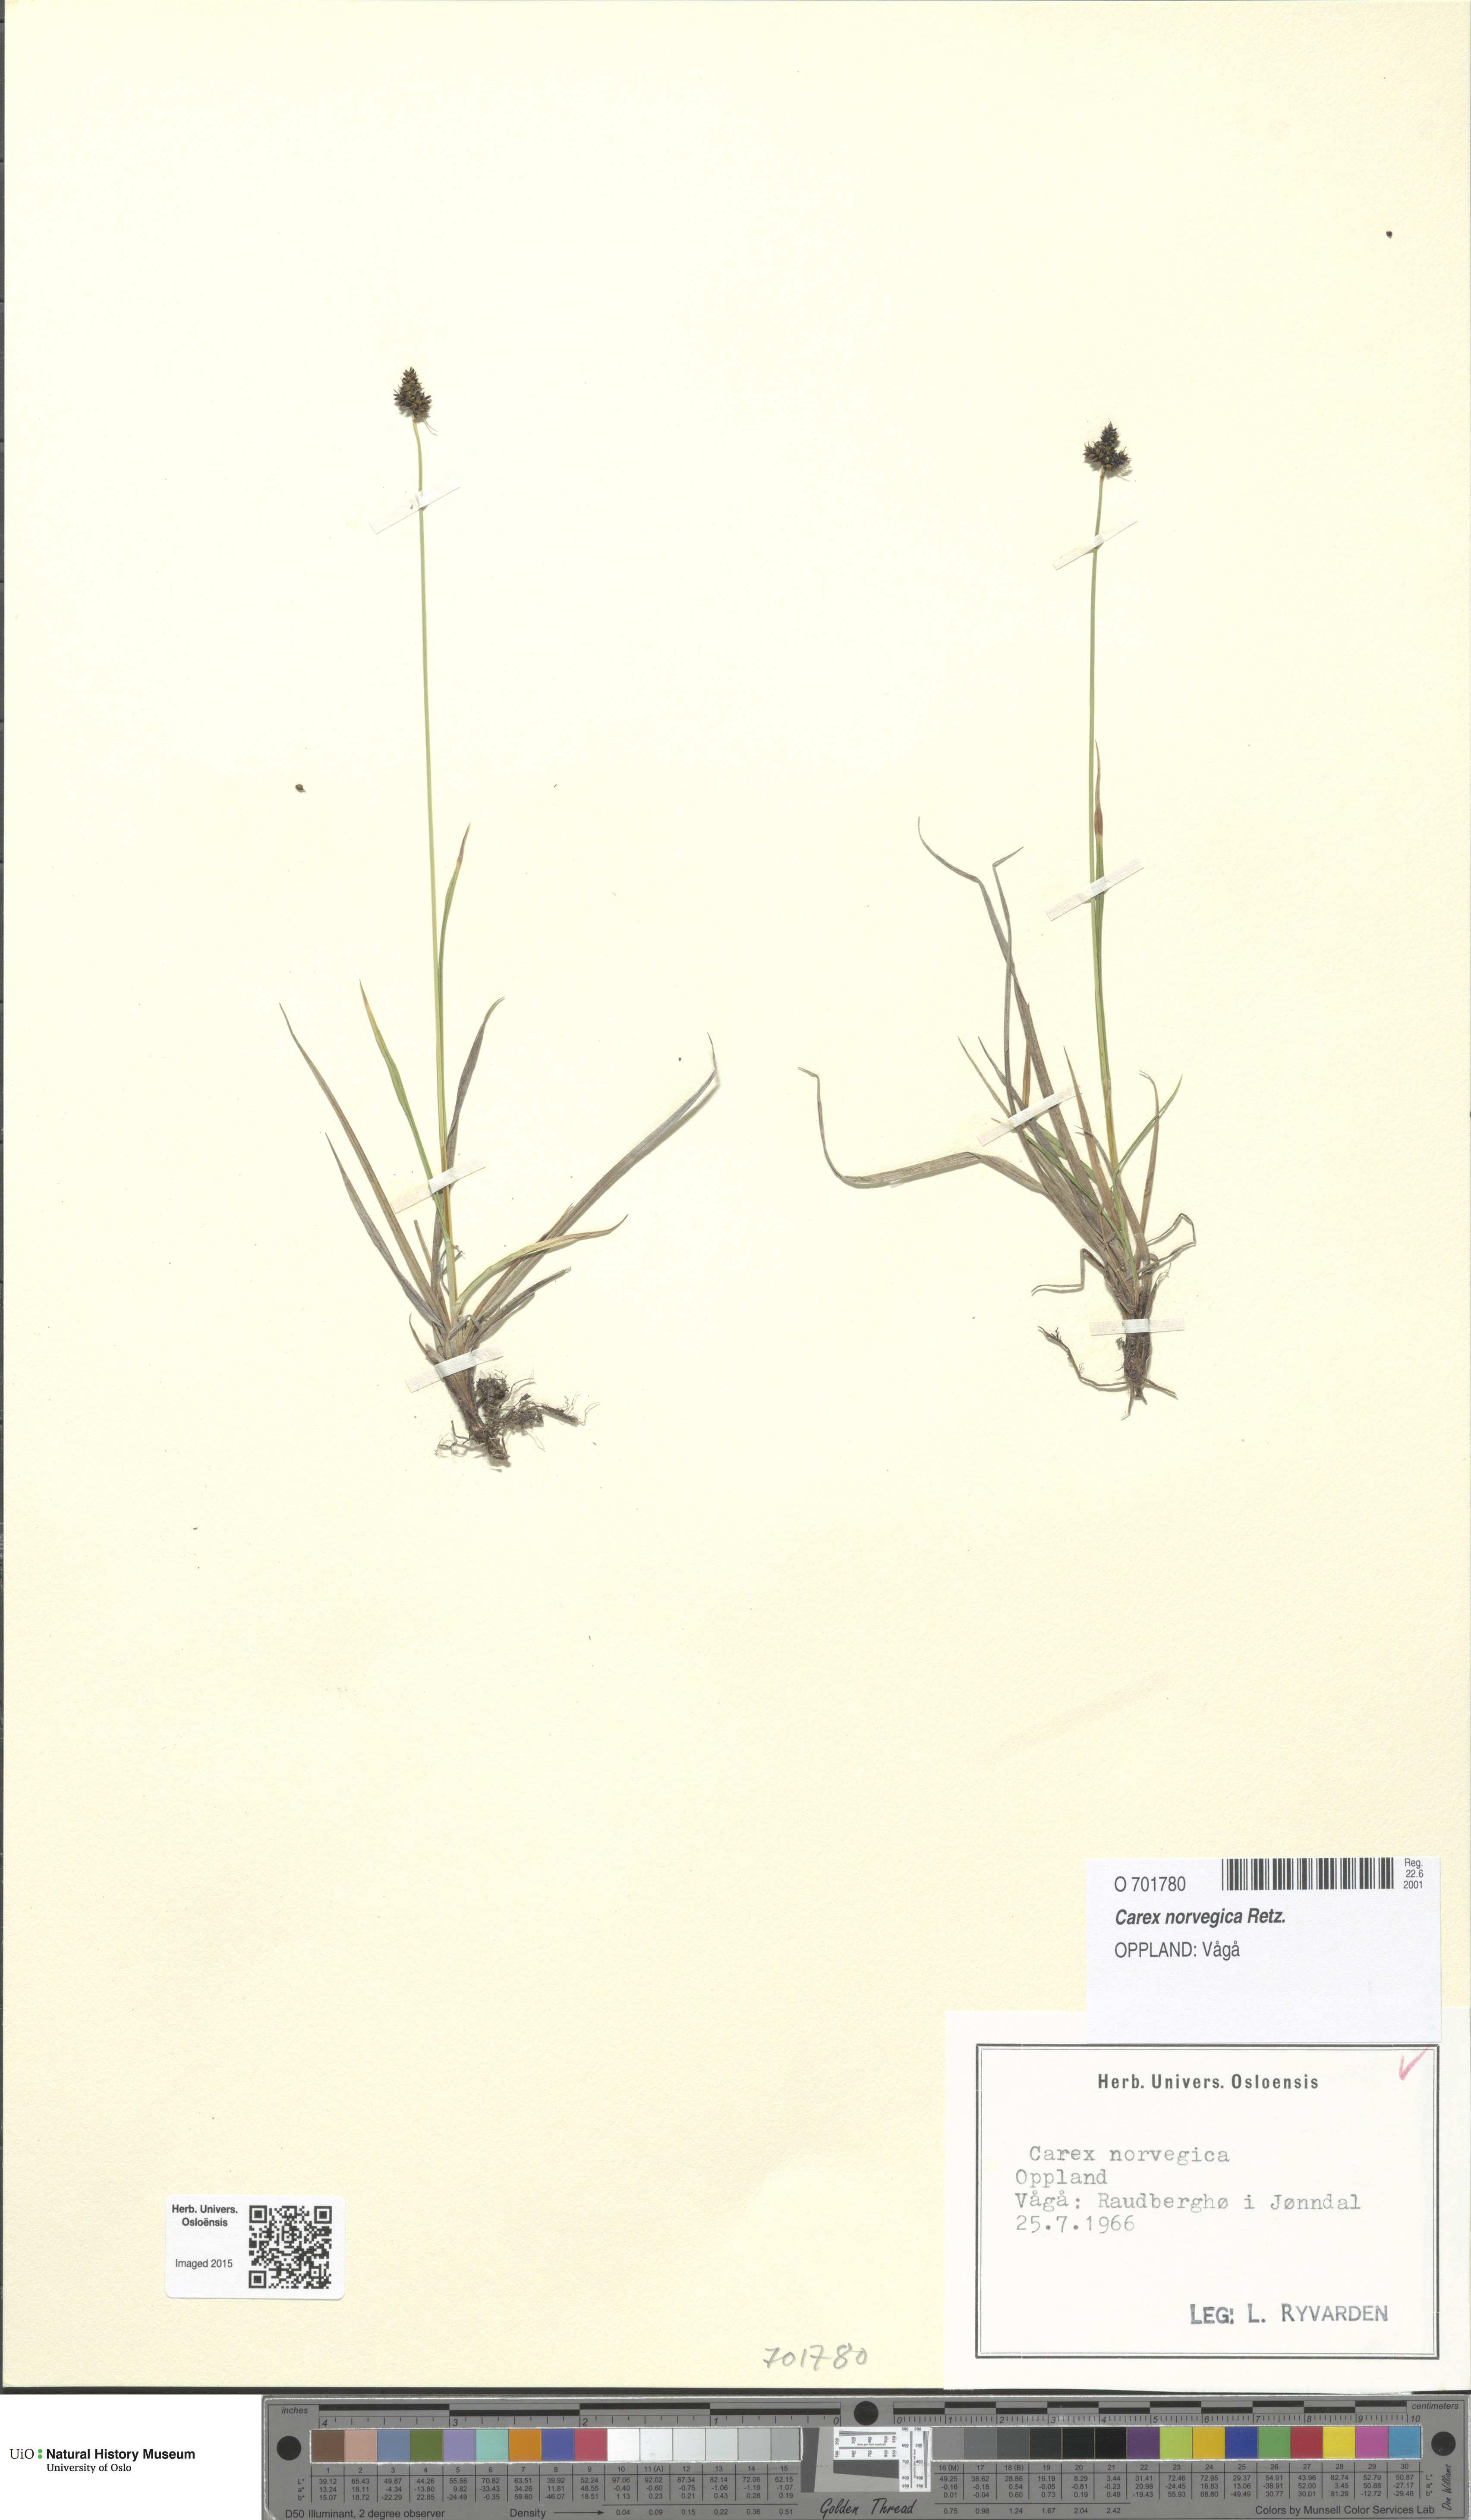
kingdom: Plantae
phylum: Tracheophyta
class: Liliopsida
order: Poales
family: Cyperaceae
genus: Carex
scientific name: Carex norvegica
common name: Close-headed alpine-sedge
